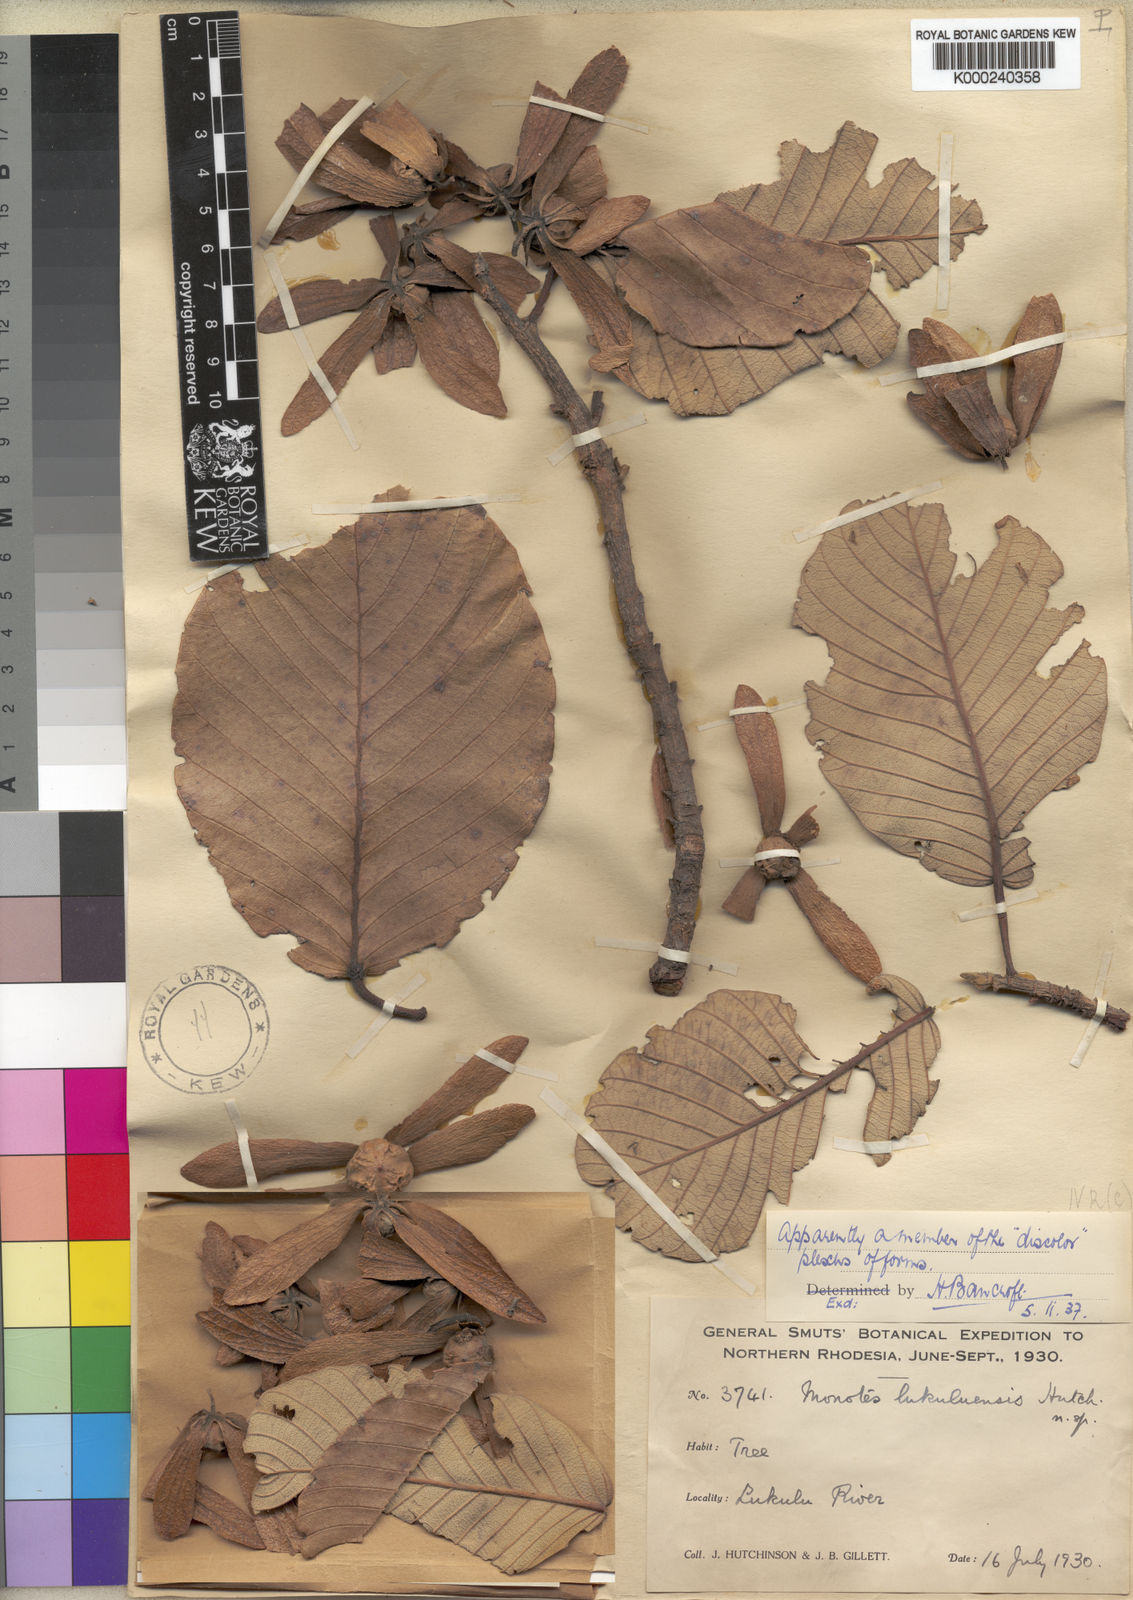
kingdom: Plantae
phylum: Tracheophyta
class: Magnoliopsida
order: Malvales
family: Dipterocarpaceae
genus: Monotes
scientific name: Monotes hypoleucus
